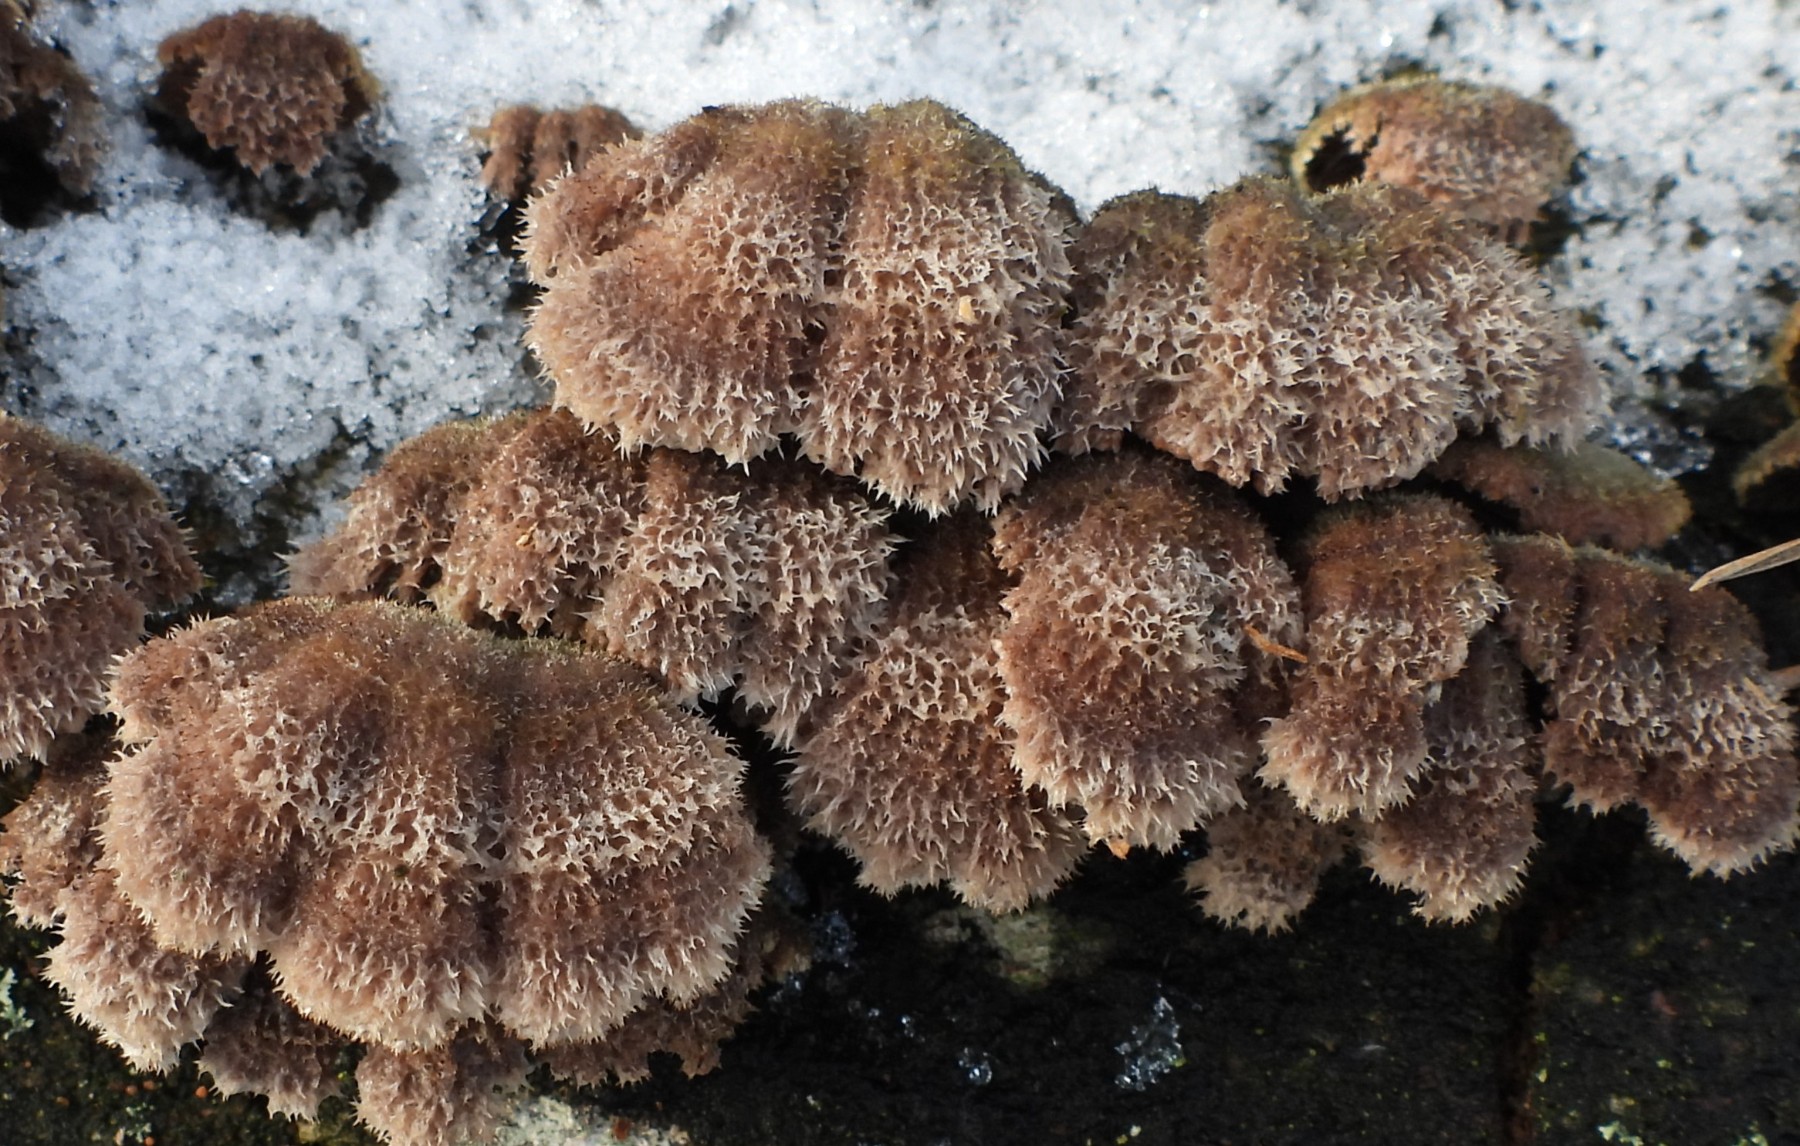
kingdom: Fungi
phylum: Basidiomycota
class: Agaricomycetes
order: Agaricales
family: Schizophyllaceae
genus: Schizophyllum
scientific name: Schizophyllum commune
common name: kløvblad
